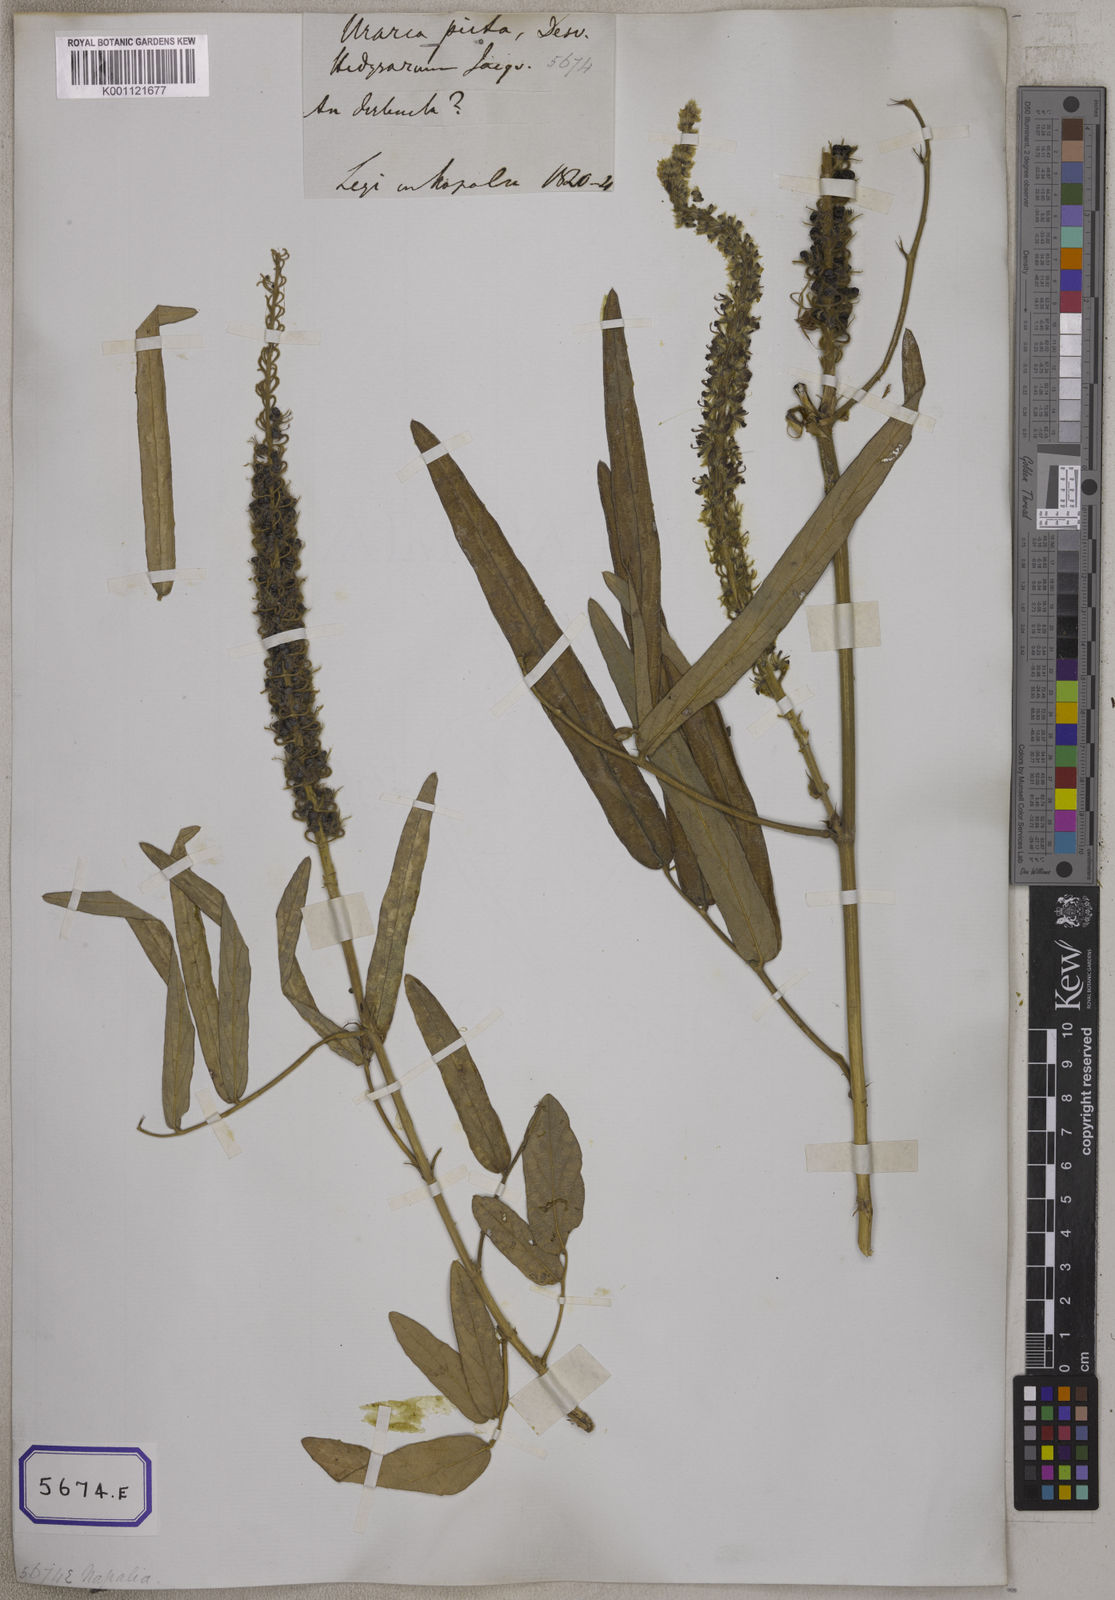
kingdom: Plantae
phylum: Tracheophyta
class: Magnoliopsida
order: Fabales
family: Fabaceae
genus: Uraria
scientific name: Uraria
